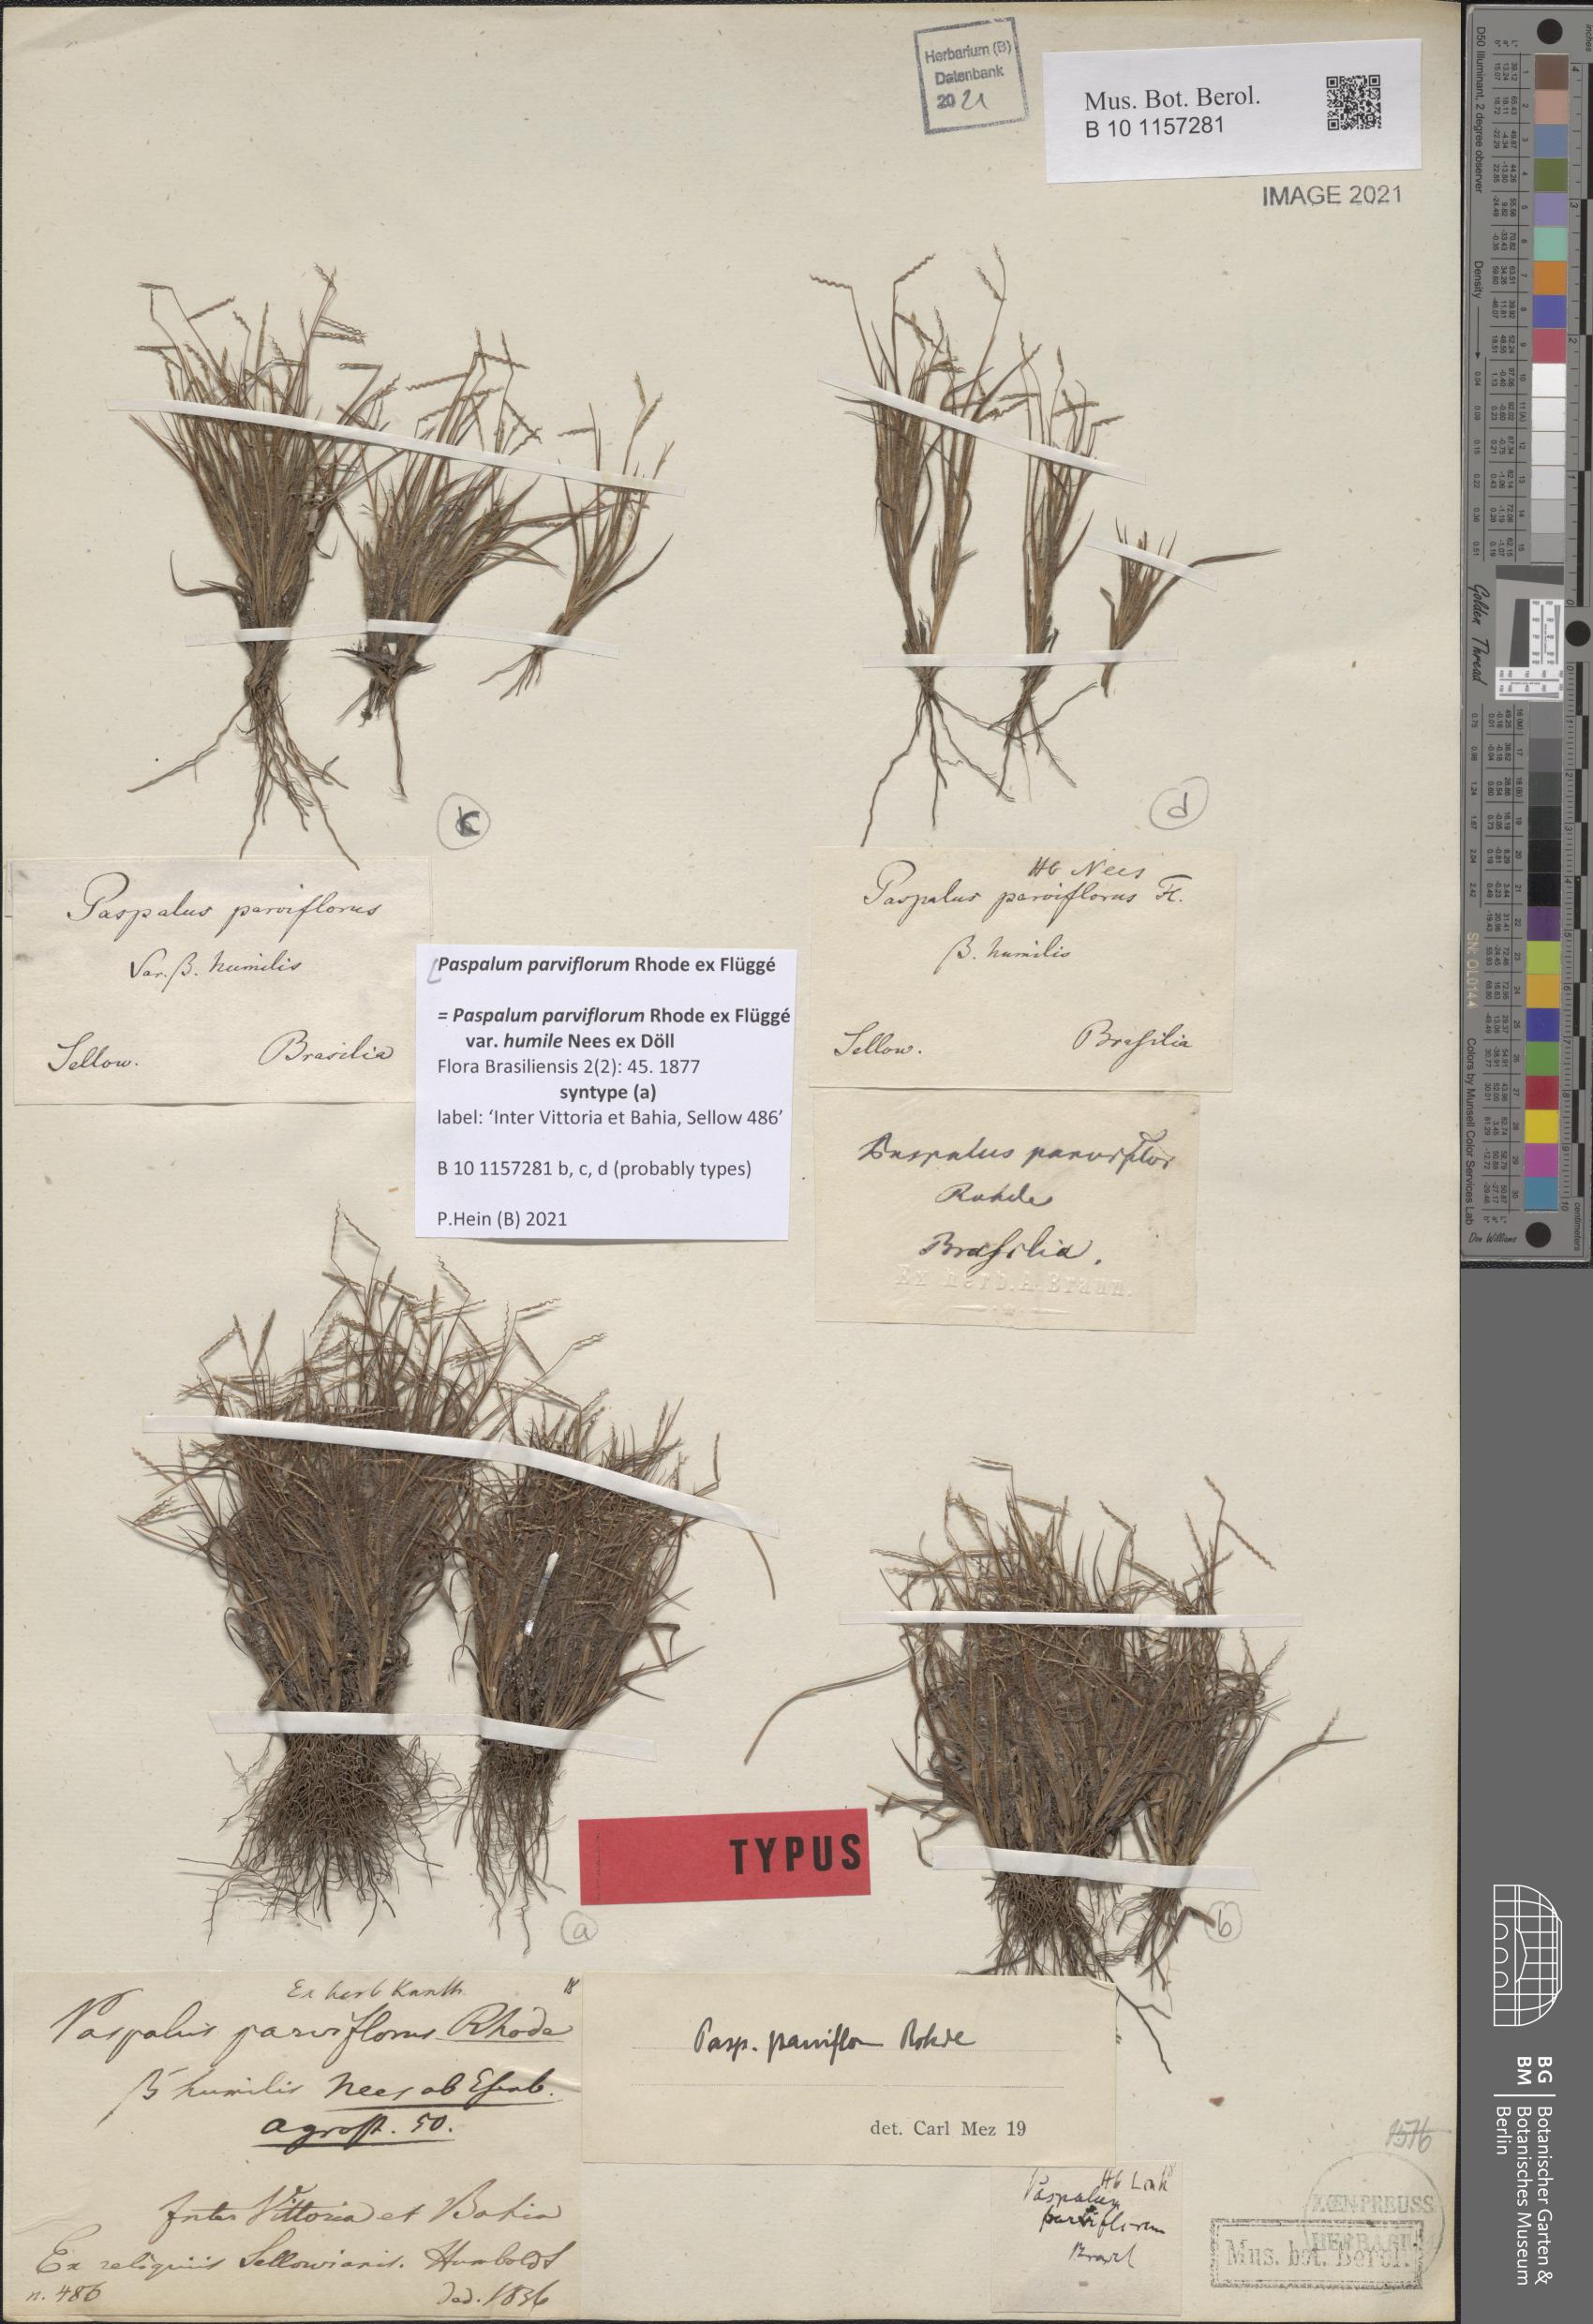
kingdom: Plantae
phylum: Tracheophyta
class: Liliopsida
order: Poales
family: Poaceae
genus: Paspalum
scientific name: Paspalum parviflorum
